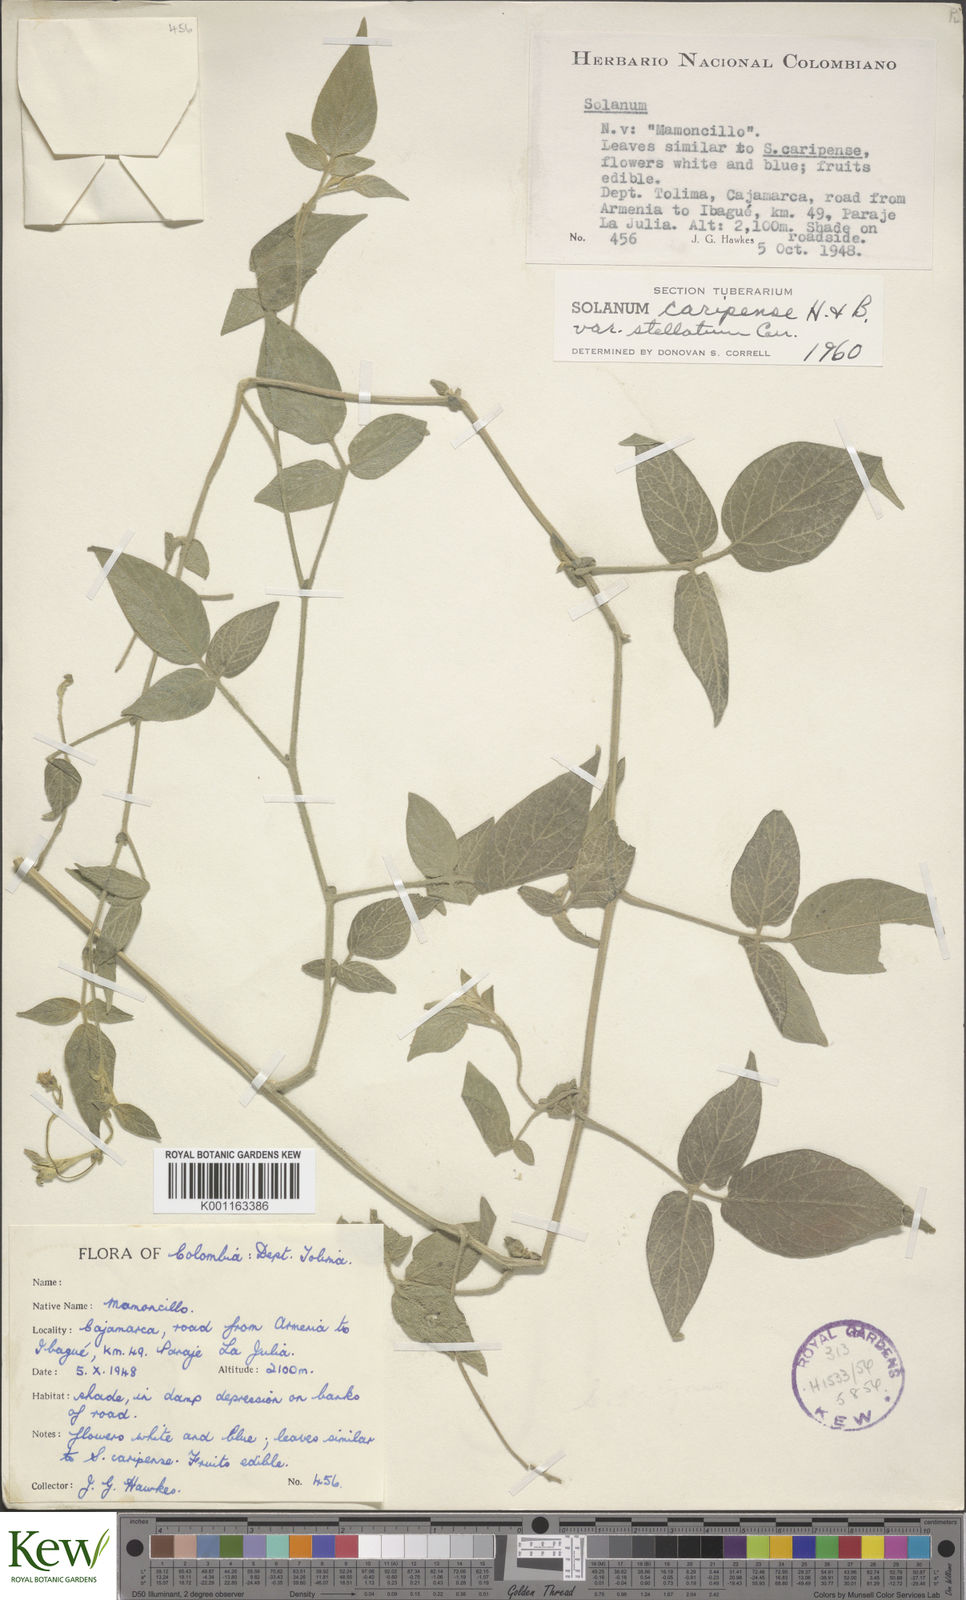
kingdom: Plantae
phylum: Tracheophyta
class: Magnoliopsida
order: Solanales
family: Solanaceae
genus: Solanum
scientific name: Solanum caripense
